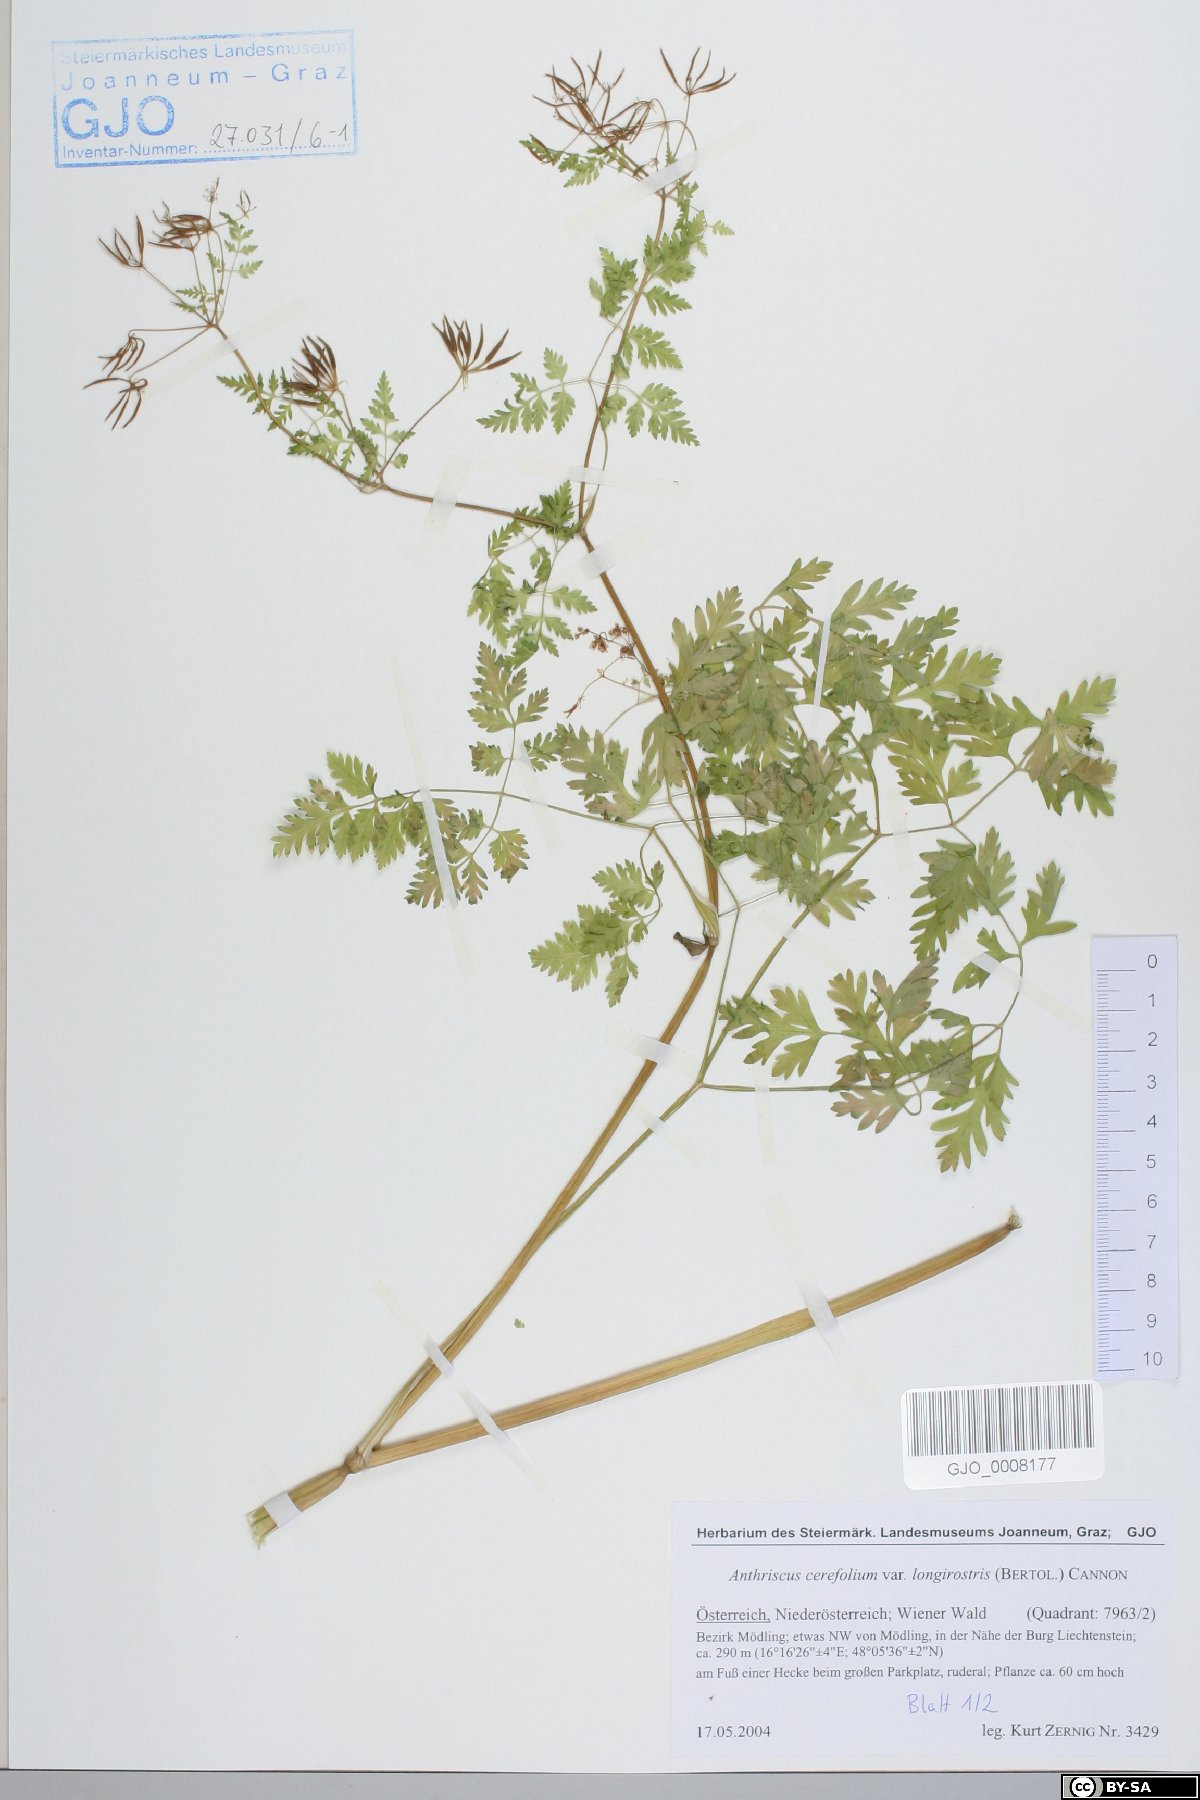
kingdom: Plantae
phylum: Tracheophyta
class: Magnoliopsida
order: Apiales
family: Apiaceae
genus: Anthriscus
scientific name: Anthriscus cerefolium
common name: Garden chervil
